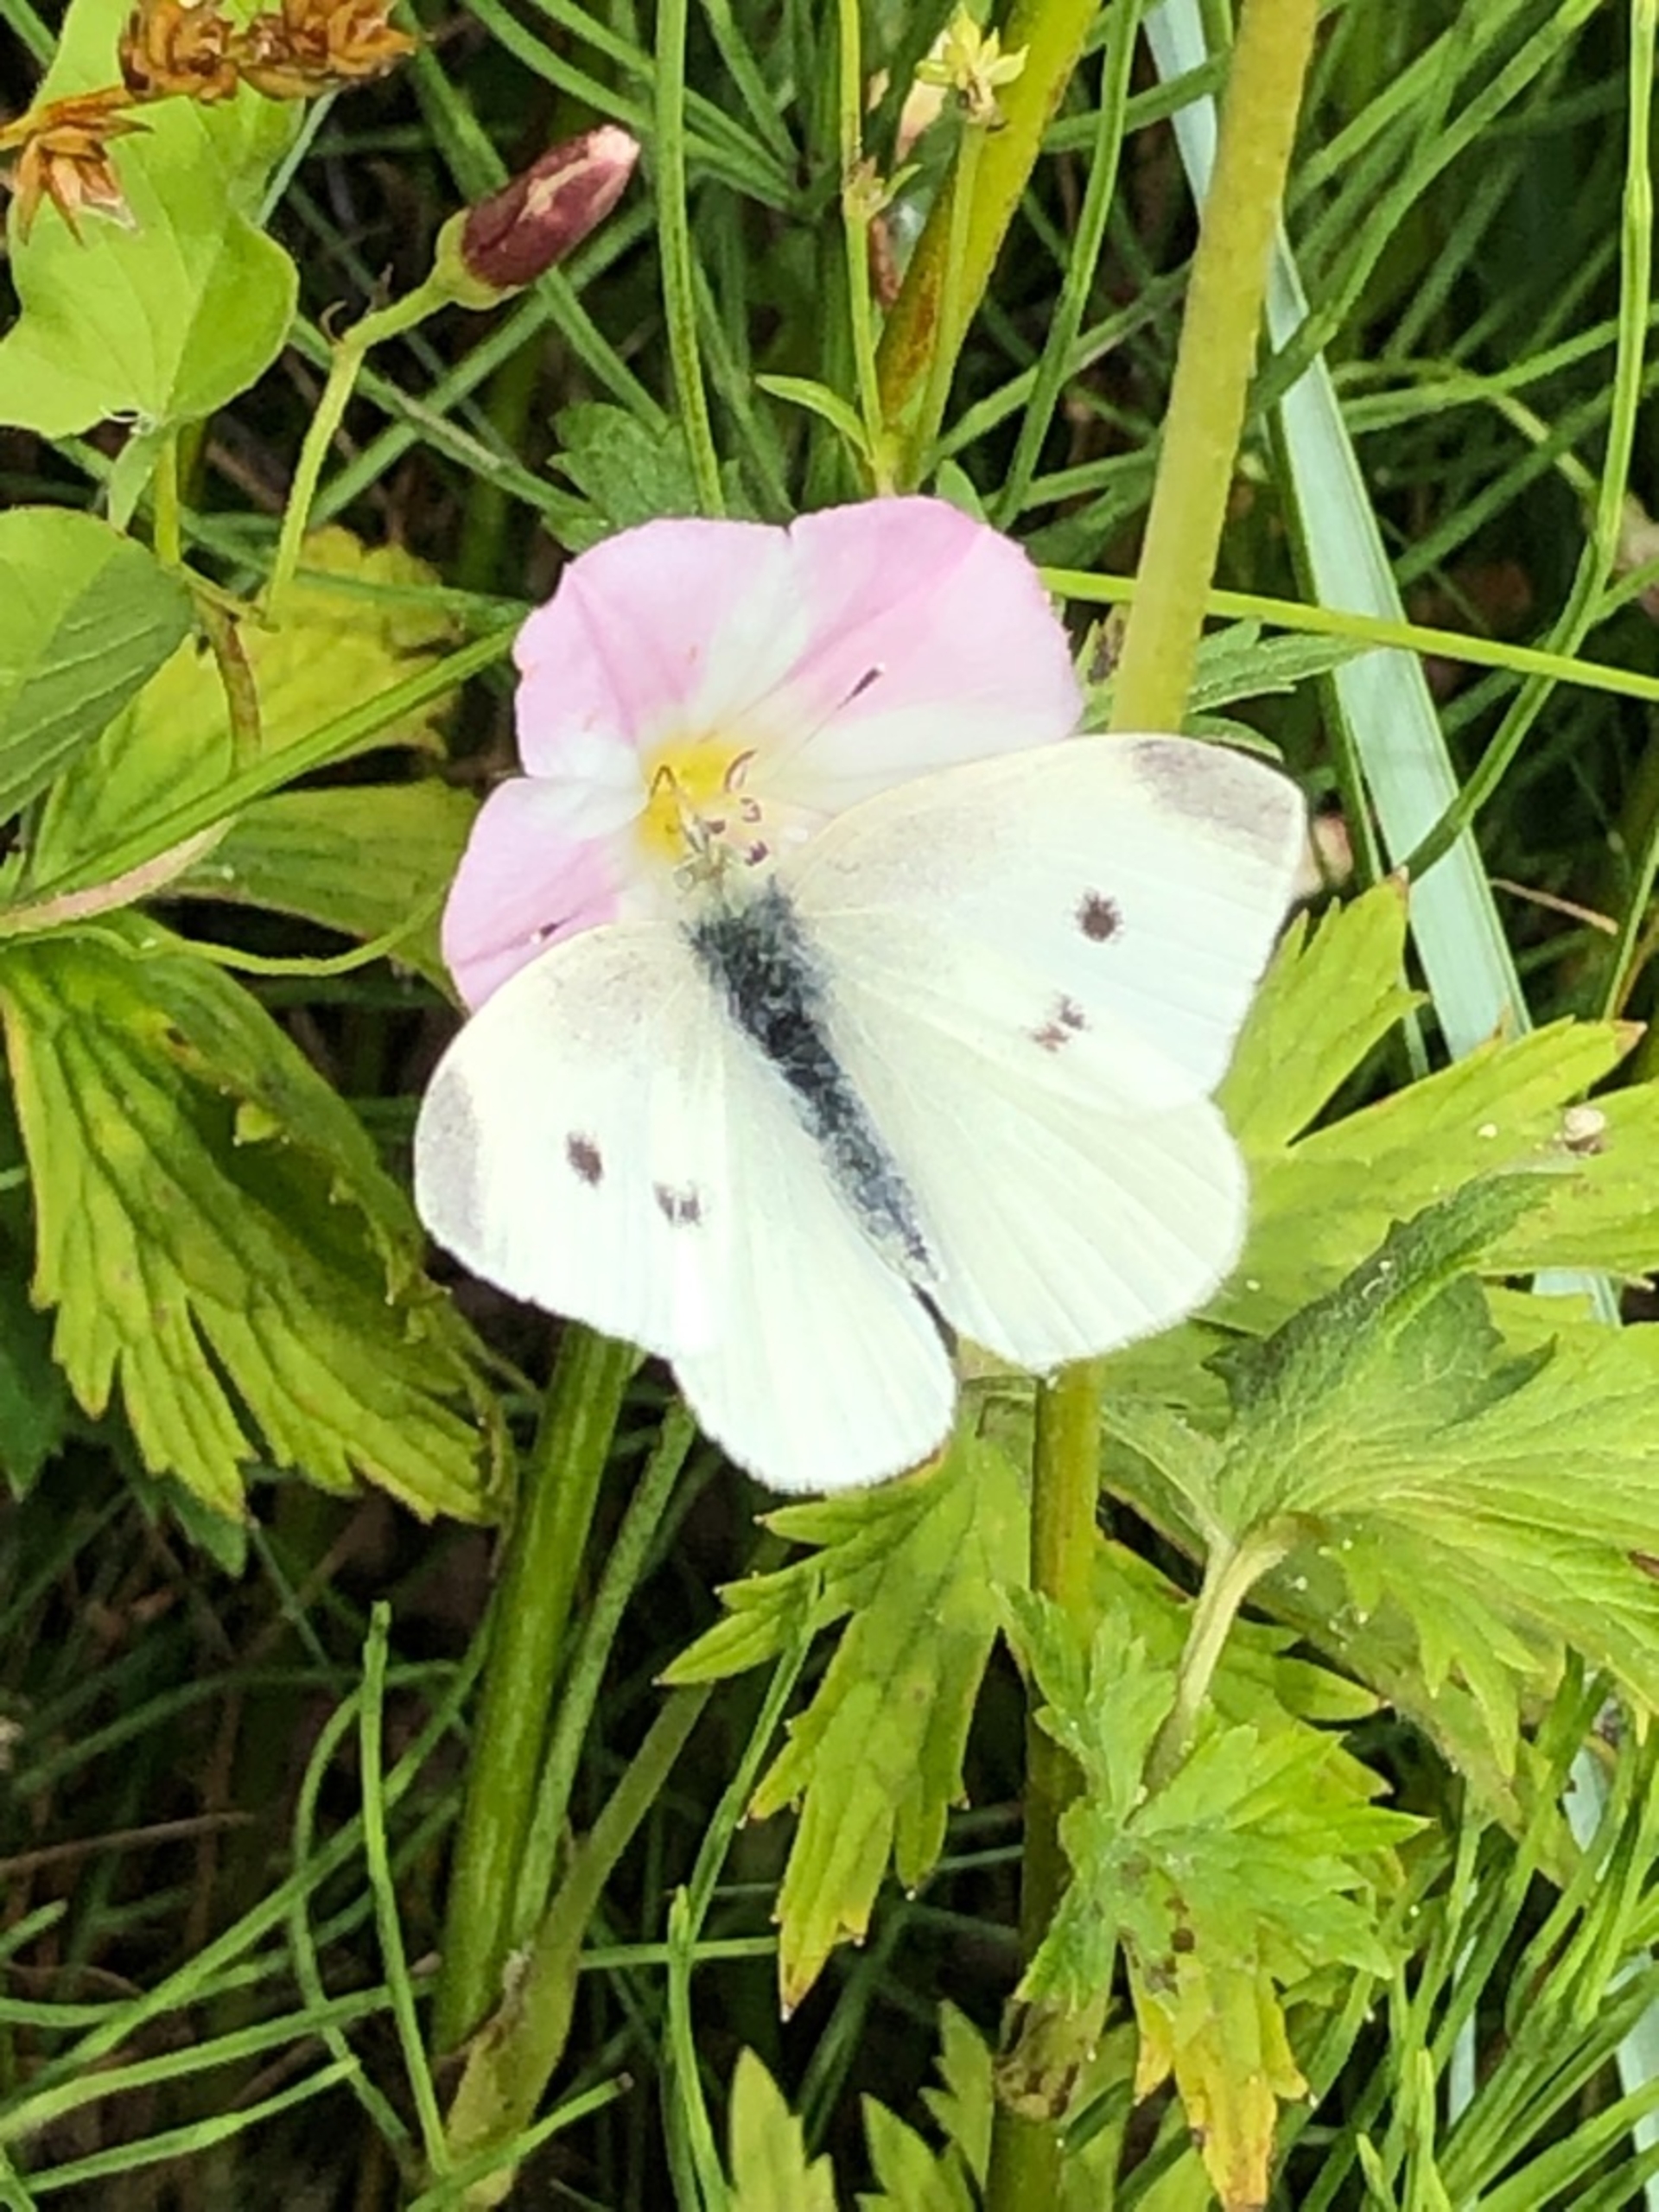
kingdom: Animalia
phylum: Arthropoda
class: Insecta
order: Lepidoptera
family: Pieridae
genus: Pieris
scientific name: Pieris rapae
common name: Lille kålsommerfugl
